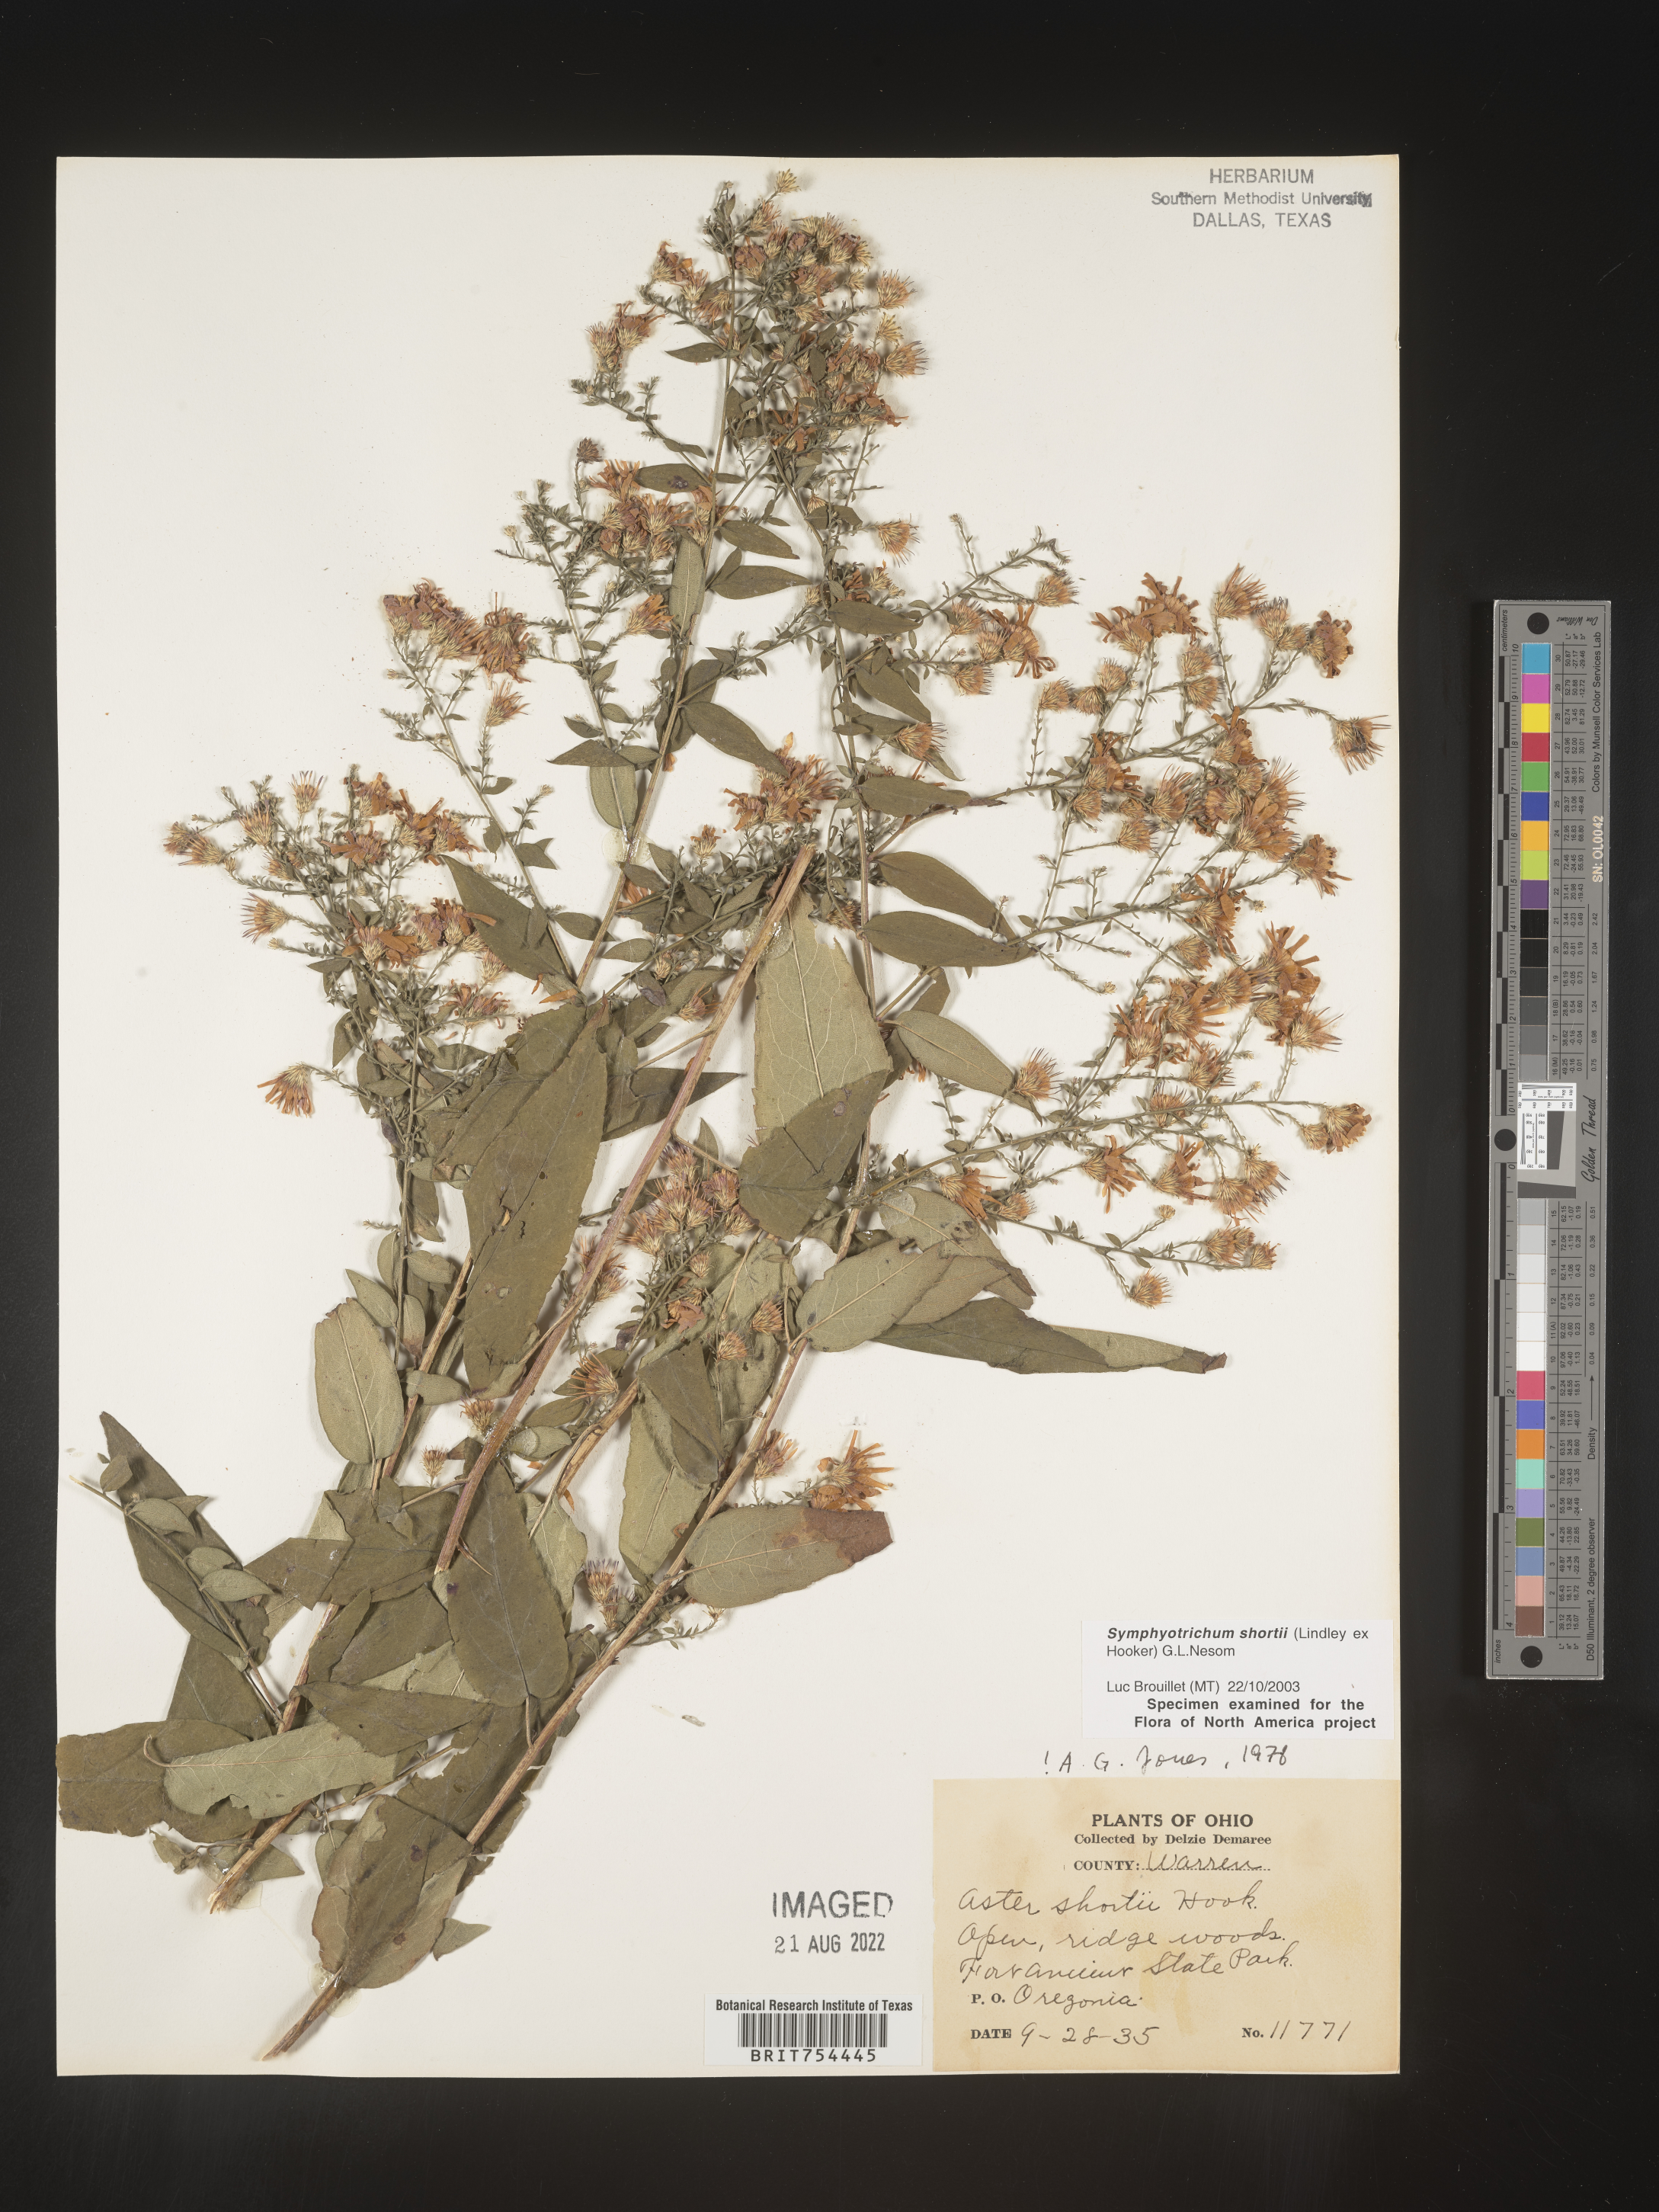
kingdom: Plantae
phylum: Tracheophyta
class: Magnoliopsida
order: Asterales
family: Asteraceae
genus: Symphyotrichum
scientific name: Symphyotrichum shortii
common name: Short's aster
